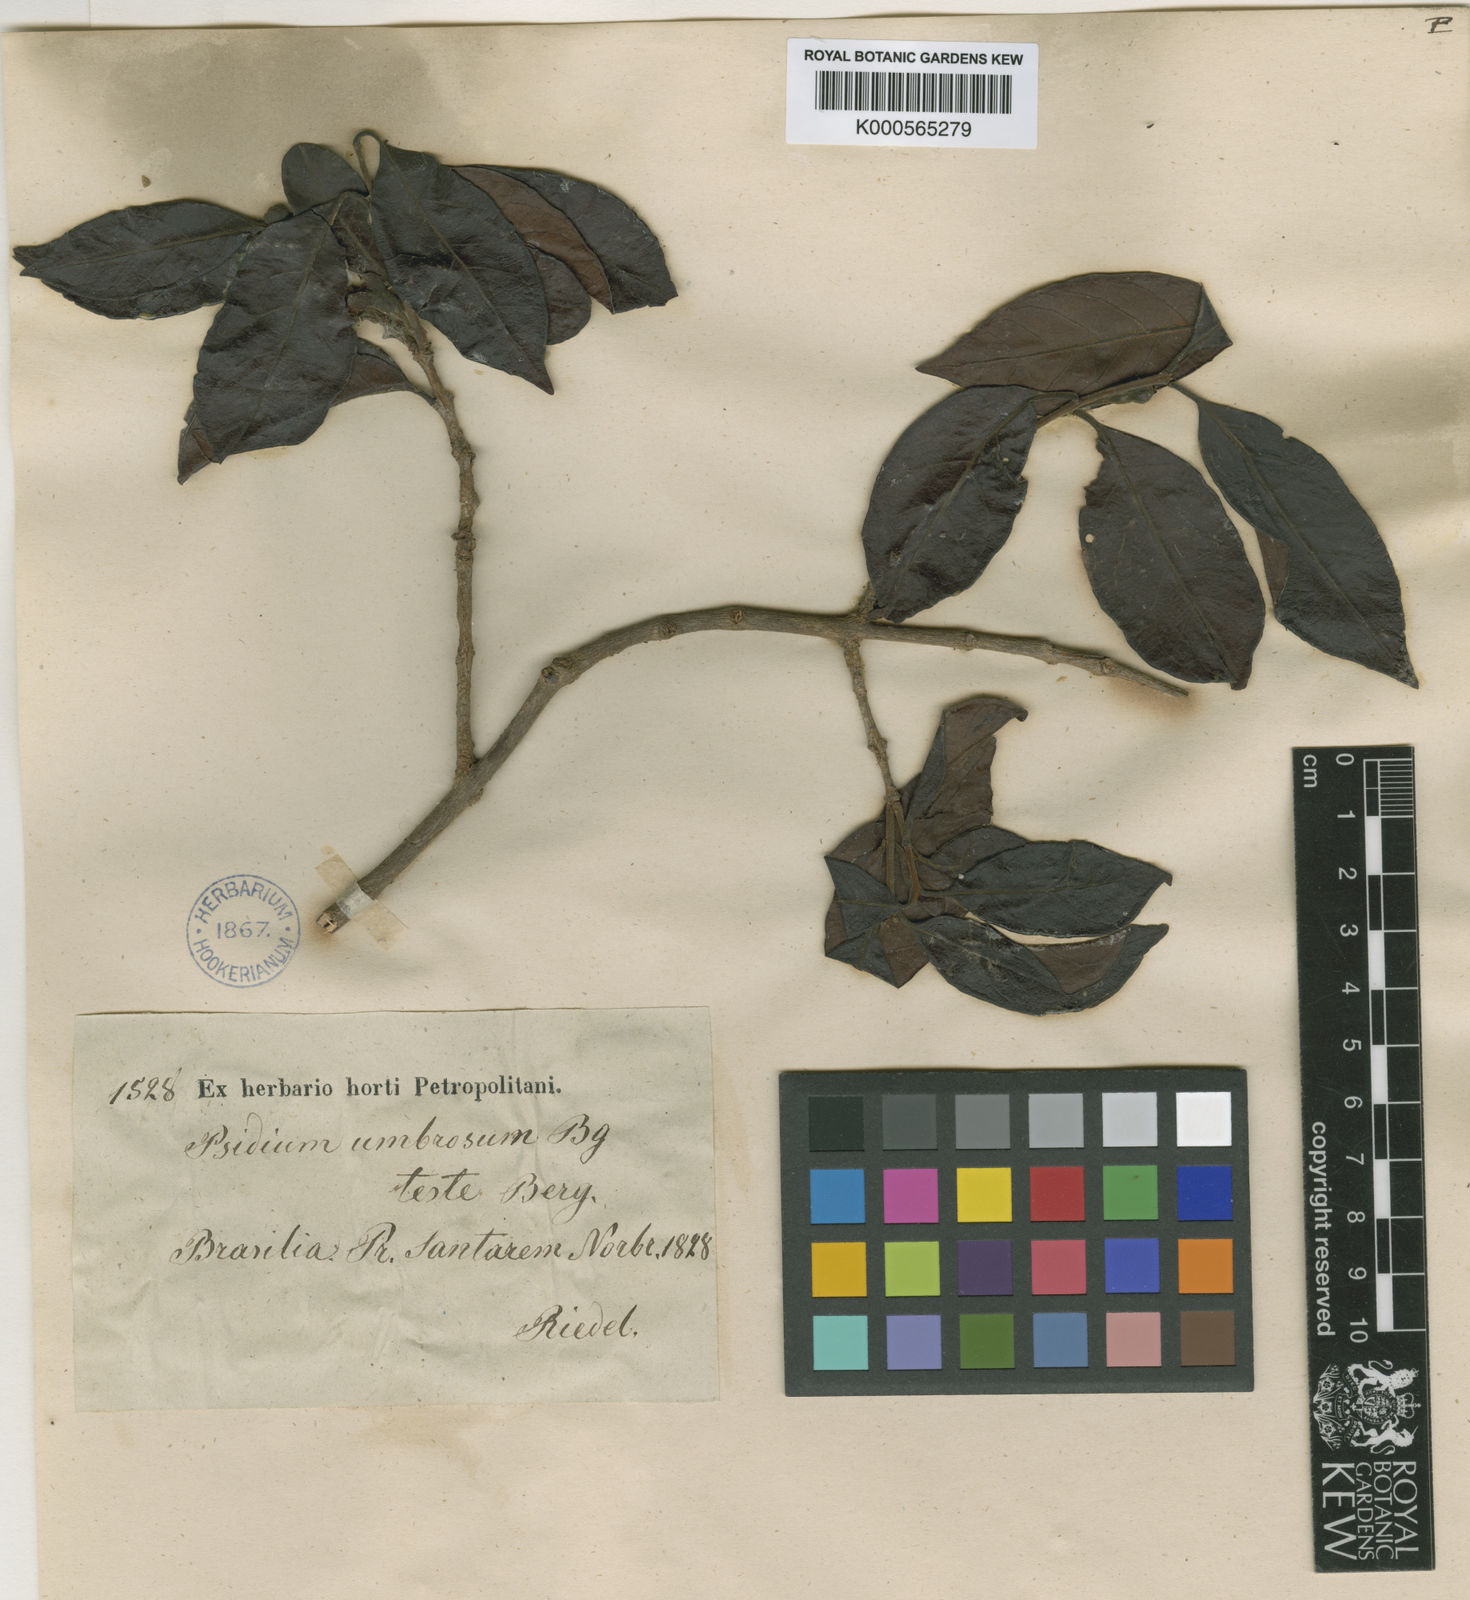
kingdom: Plantae
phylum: Tracheophyta
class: Magnoliopsida
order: Myrtales
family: Myrtaceae
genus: Psidium
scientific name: Psidium guyanense
